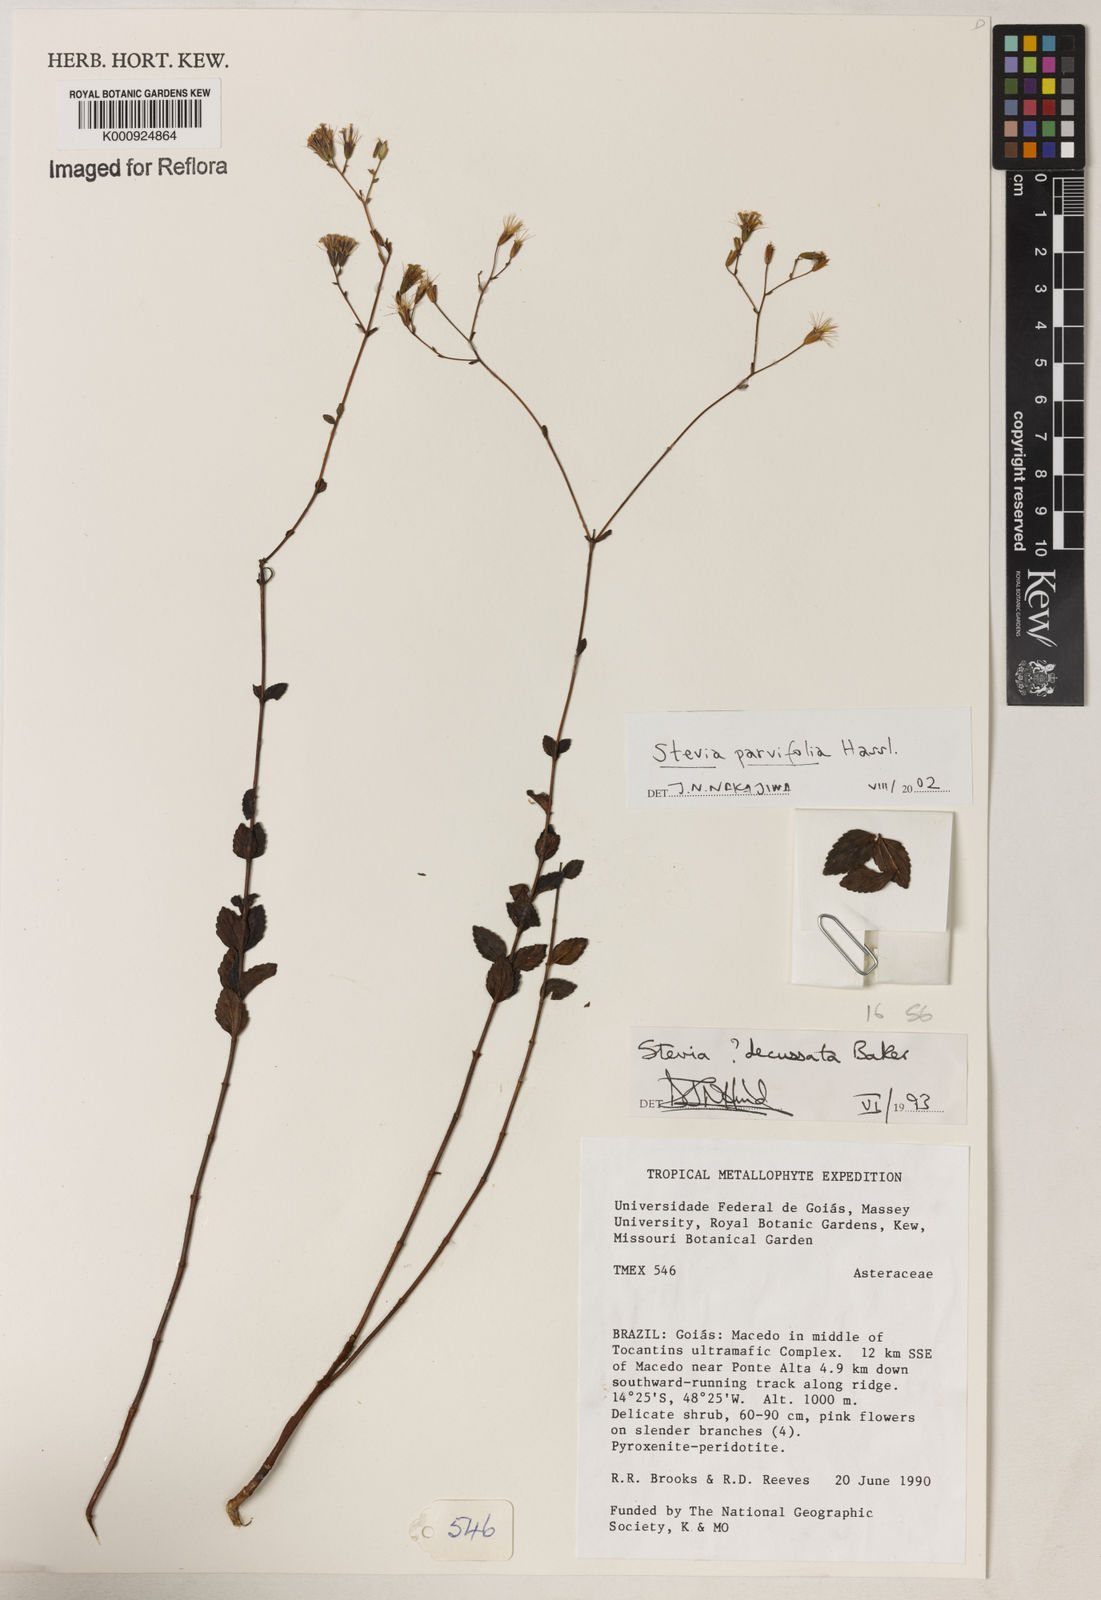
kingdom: Plantae
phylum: Tracheophyta
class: Magnoliopsida
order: Asterales
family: Asteraceae
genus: Stevia
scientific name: Stevia parvifolia
